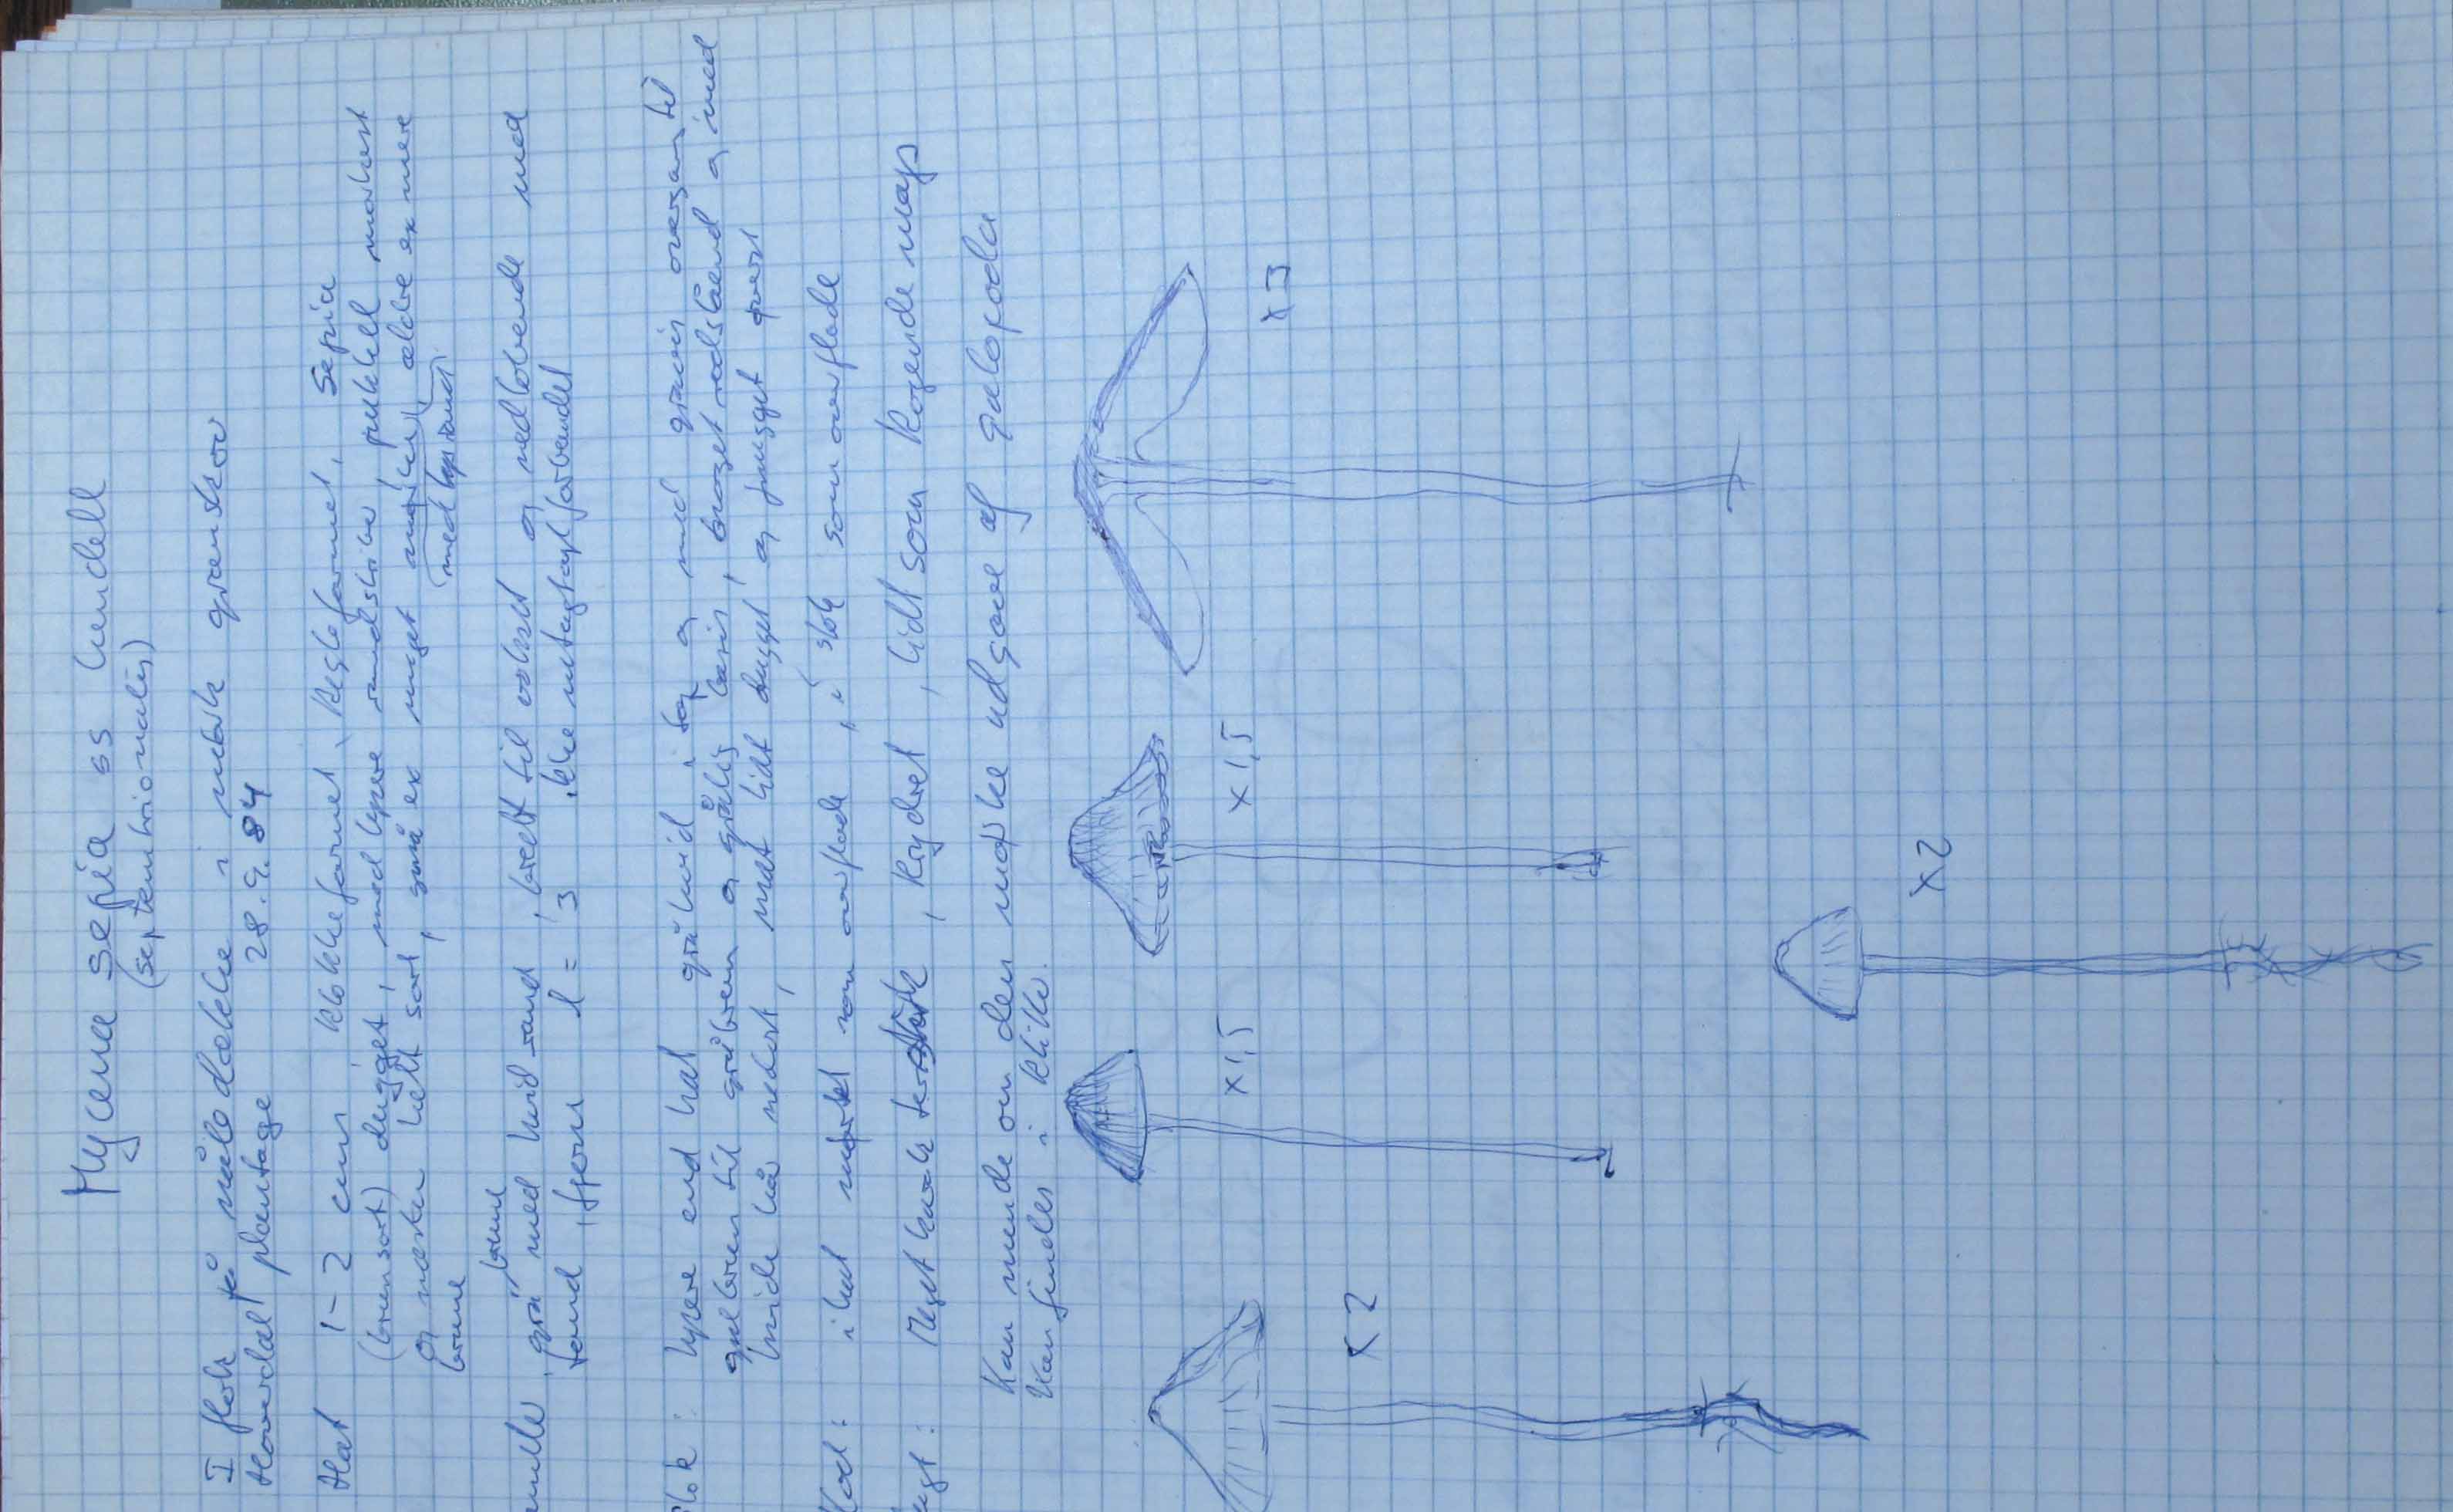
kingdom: Fungi
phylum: Basidiomycota
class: Agaricomycetes
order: Agaricales
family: Mycenaceae
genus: Mycena
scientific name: Mycena septentrionalis
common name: pelargonie-huesvamp
